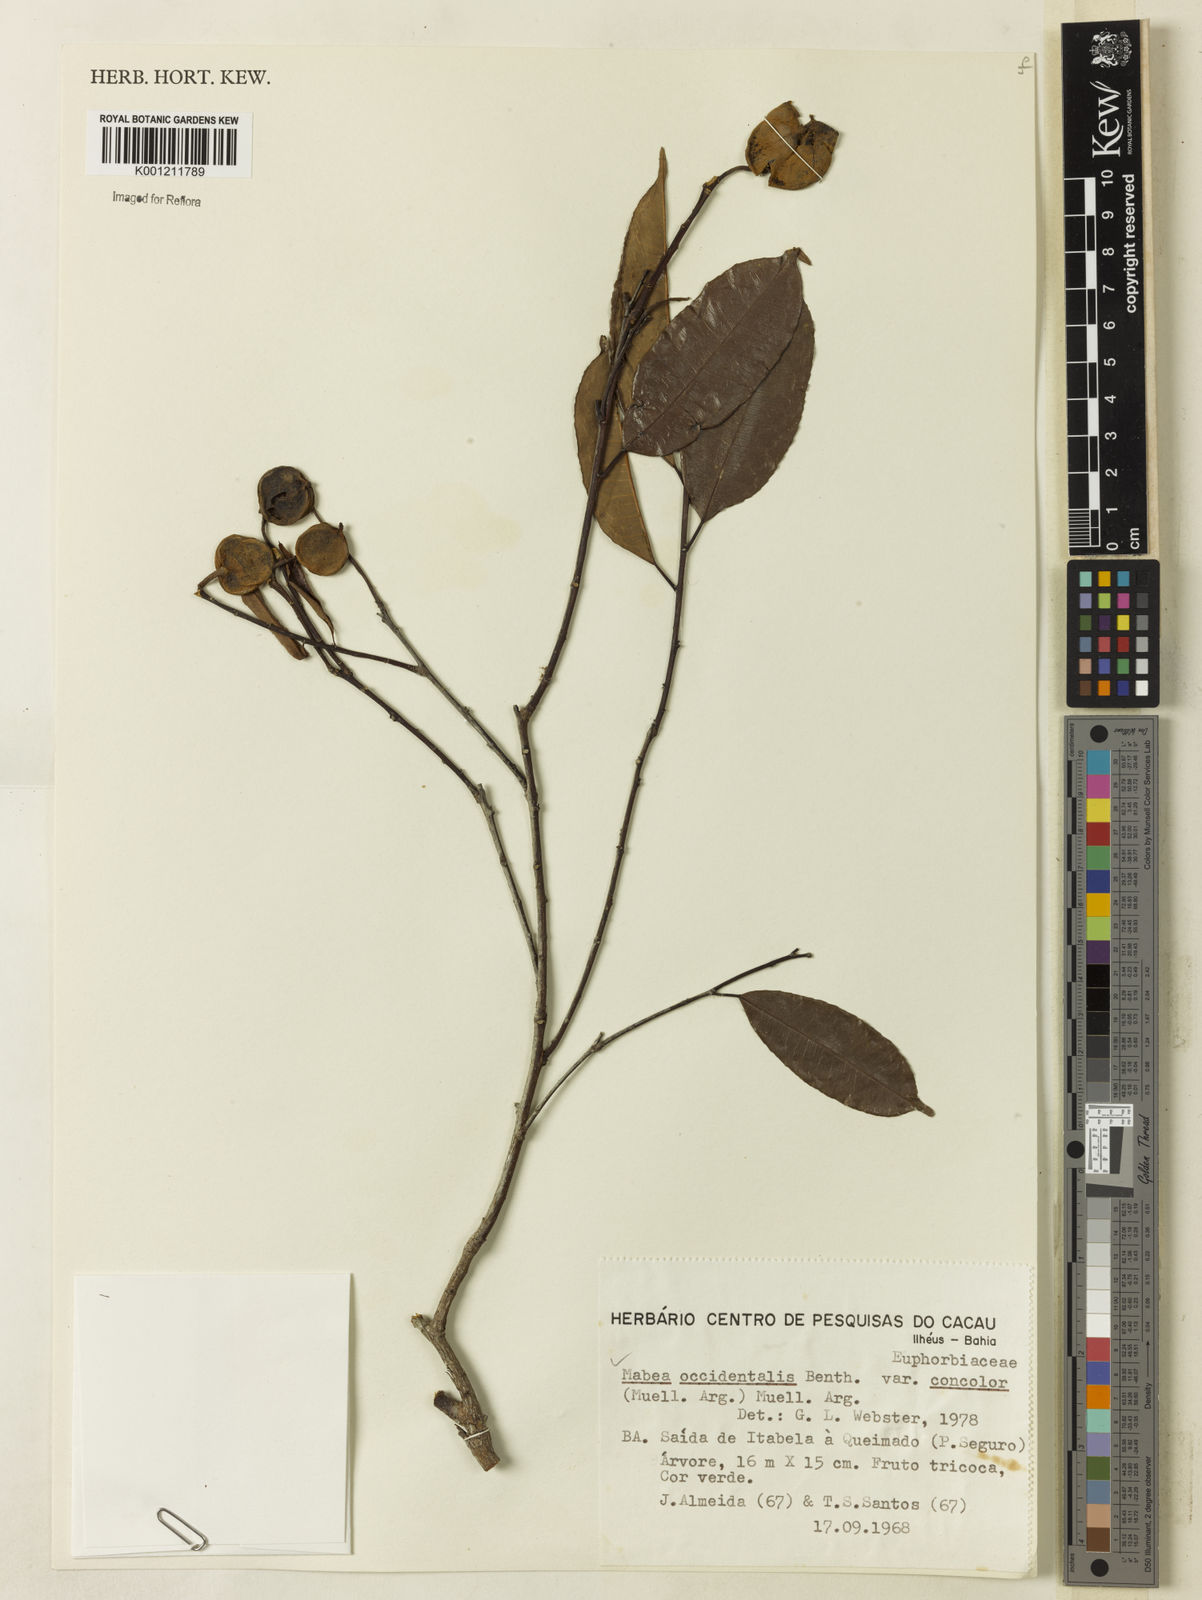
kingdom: Plantae
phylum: Tracheophyta
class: Magnoliopsida
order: Malpighiales
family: Euphorbiaceae
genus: Mabea
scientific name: Mabea occidentalis
